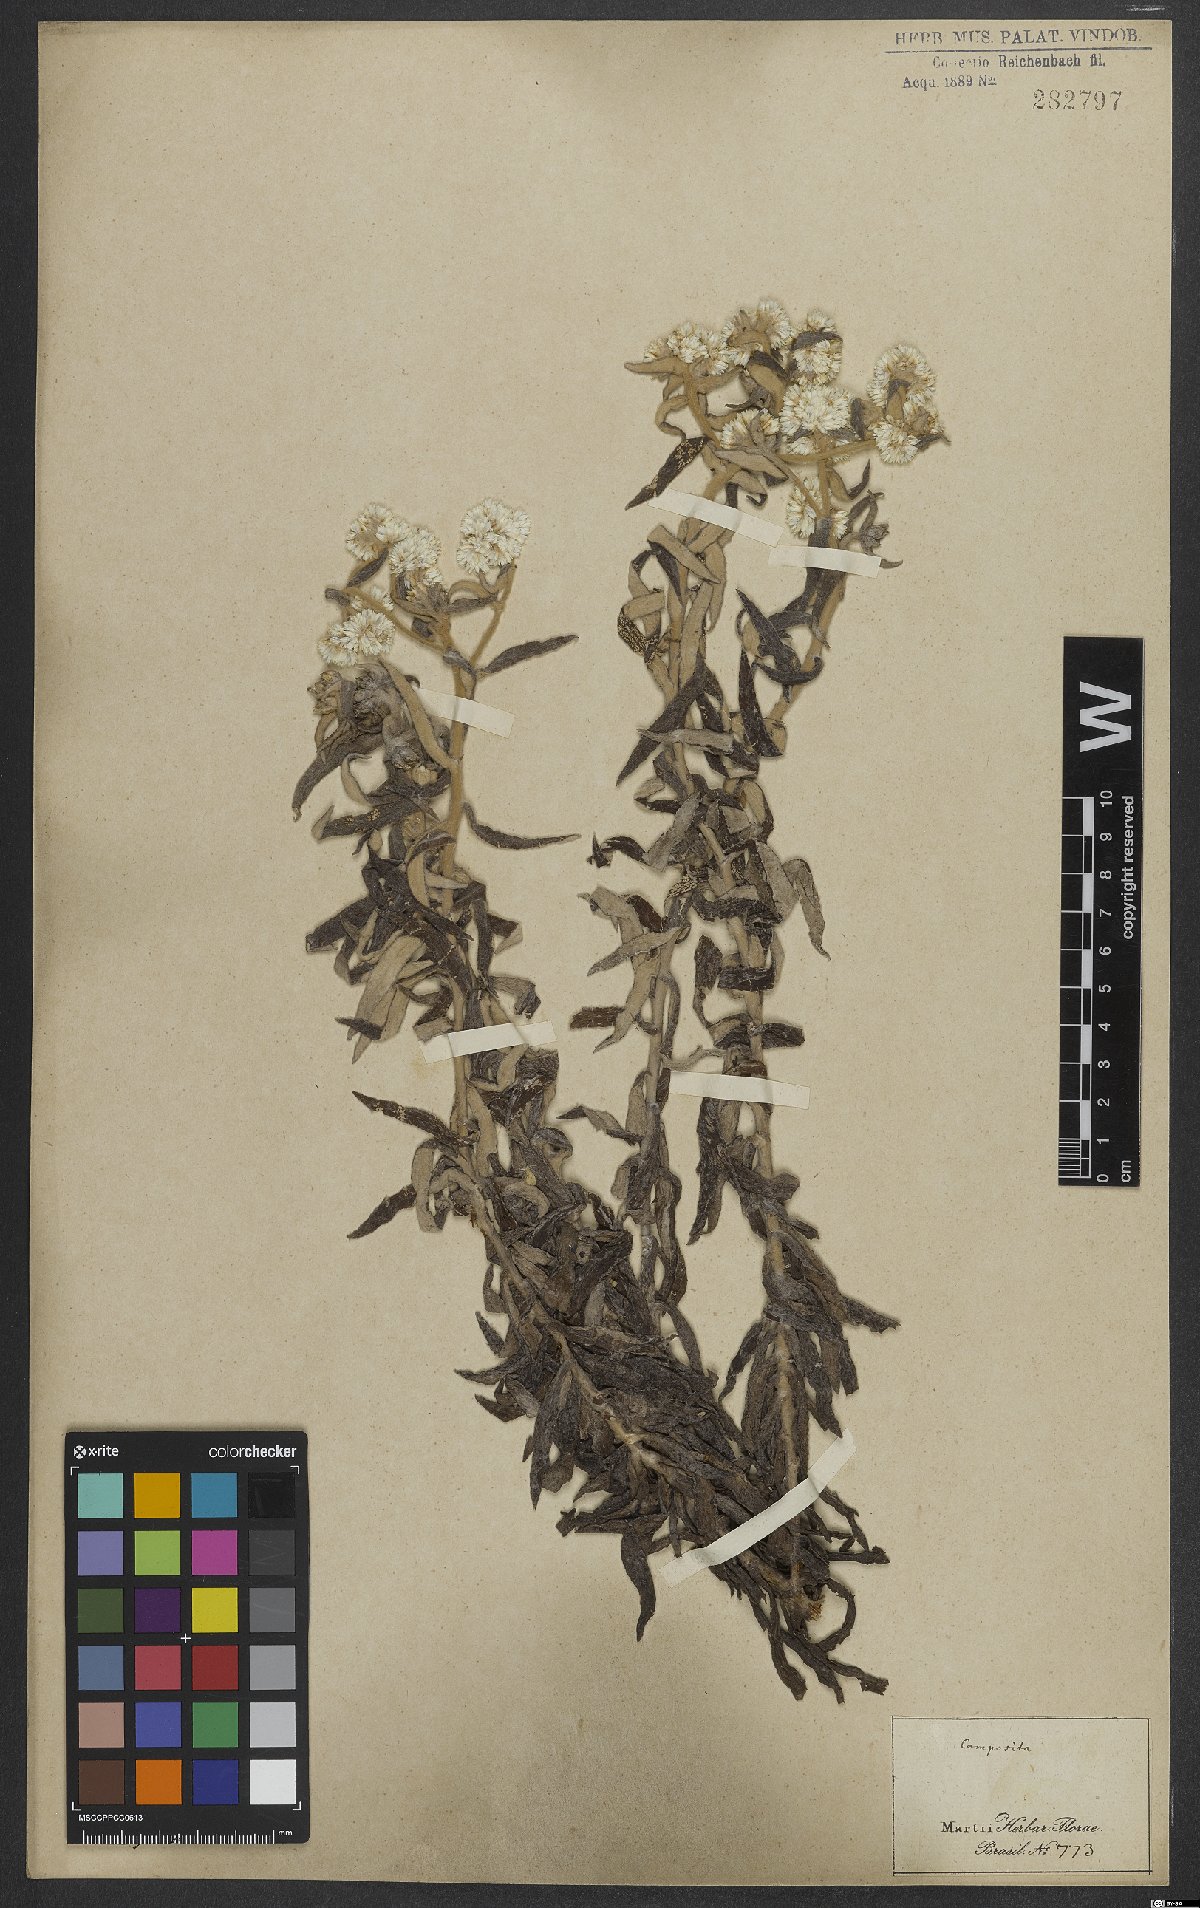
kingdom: Plantae
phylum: Tracheophyta
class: Magnoliopsida
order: Asterales
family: Asteraceae
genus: Gnaphalium
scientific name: Gnaphalium
